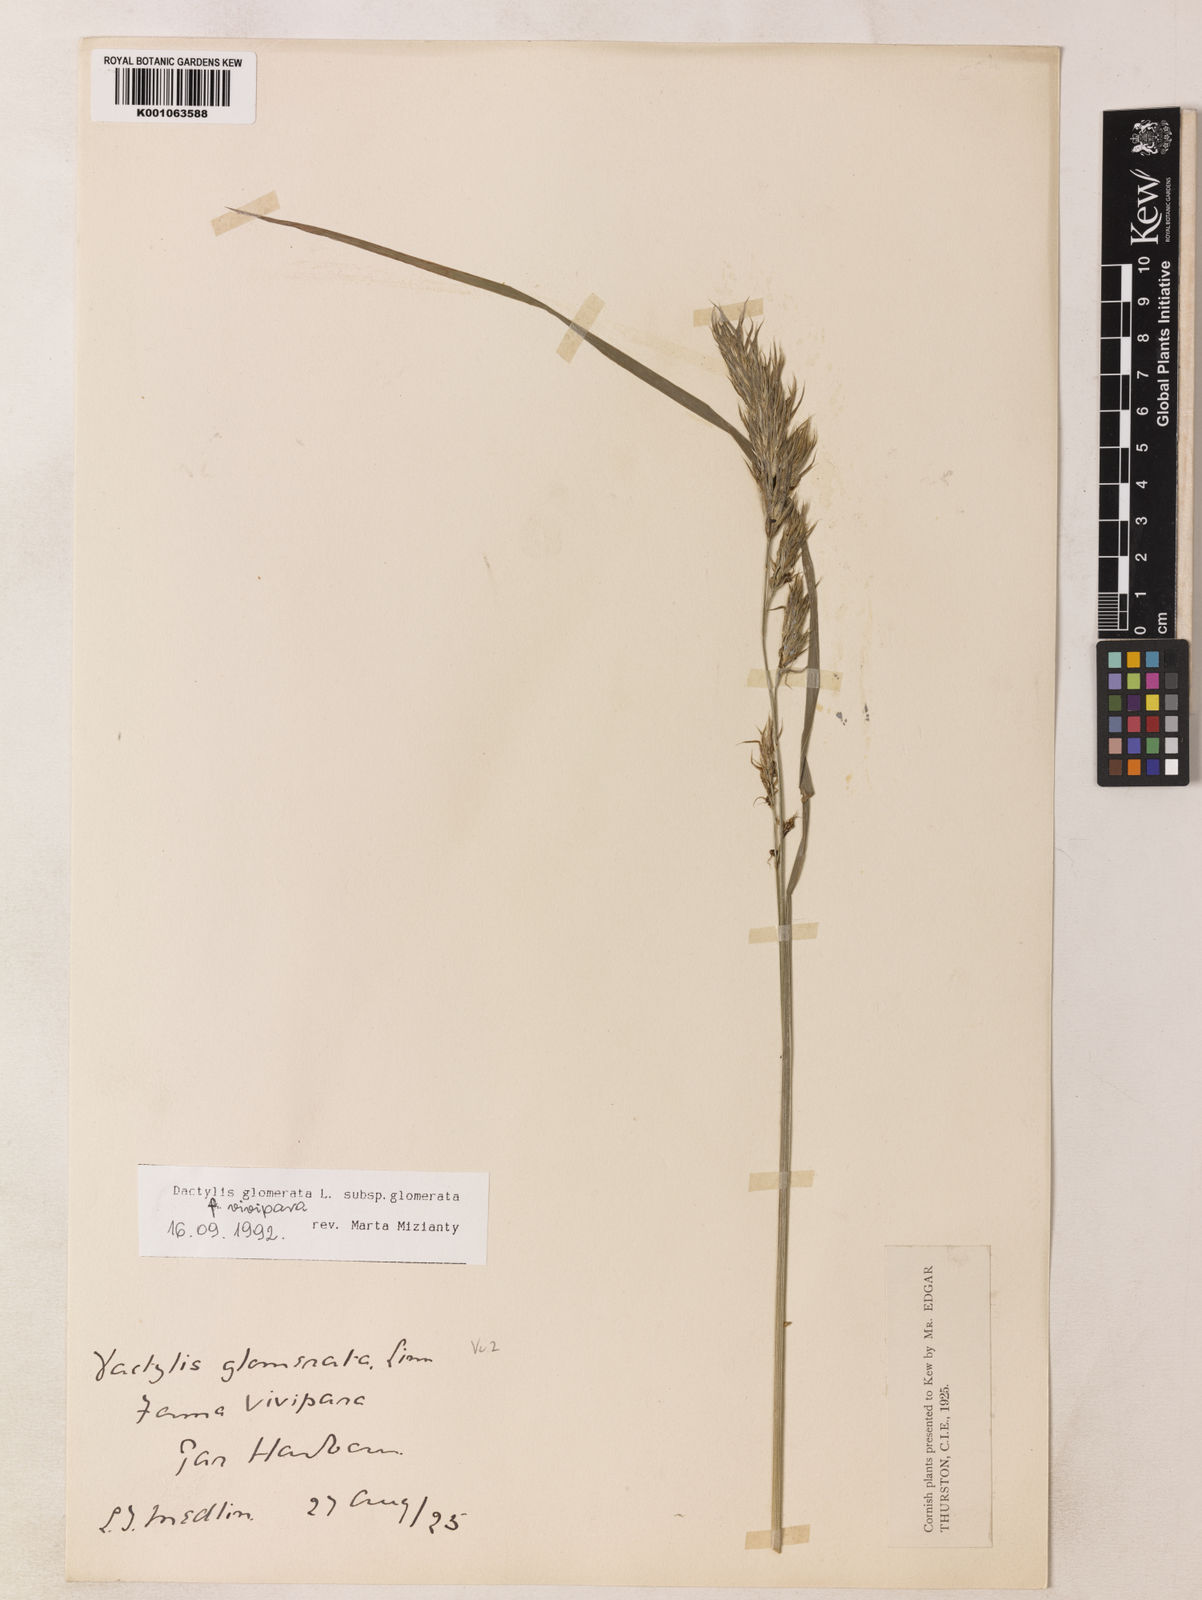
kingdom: Plantae
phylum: Tracheophyta
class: Liliopsida
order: Poales
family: Poaceae
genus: Dactylis
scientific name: Dactylis glomerata
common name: Orchardgrass
